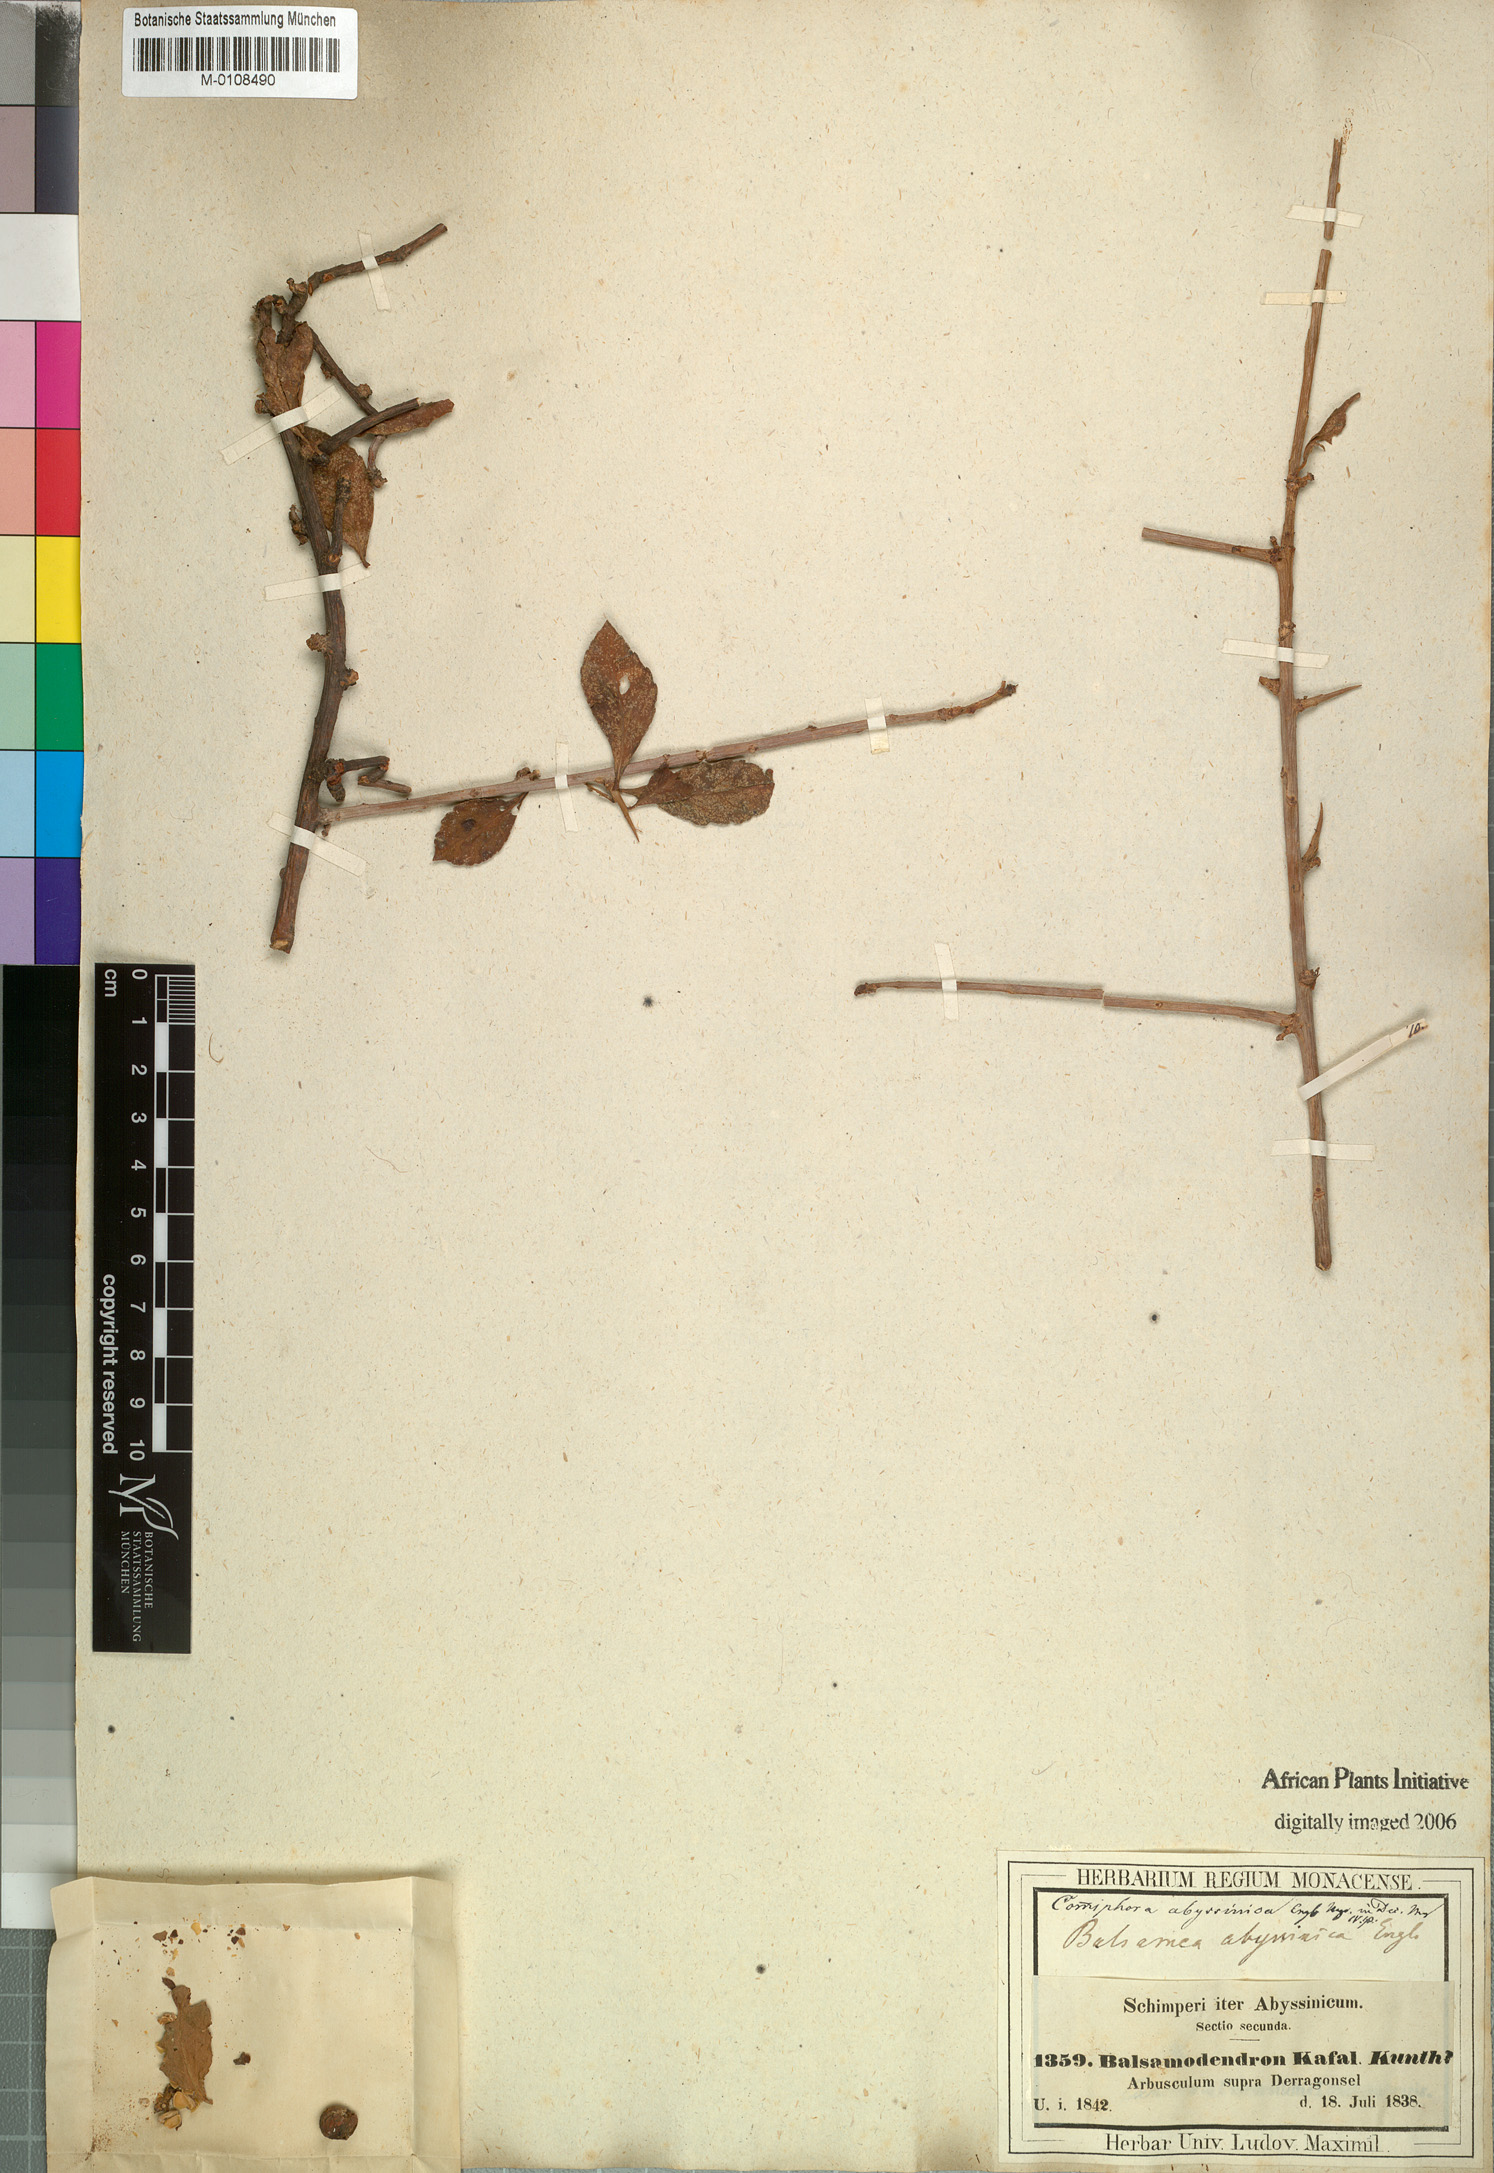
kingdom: Plantae
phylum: Tracheophyta
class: Magnoliopsida
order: Sapindales
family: Burseraceae
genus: Commiphora
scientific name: Commiphora kua
